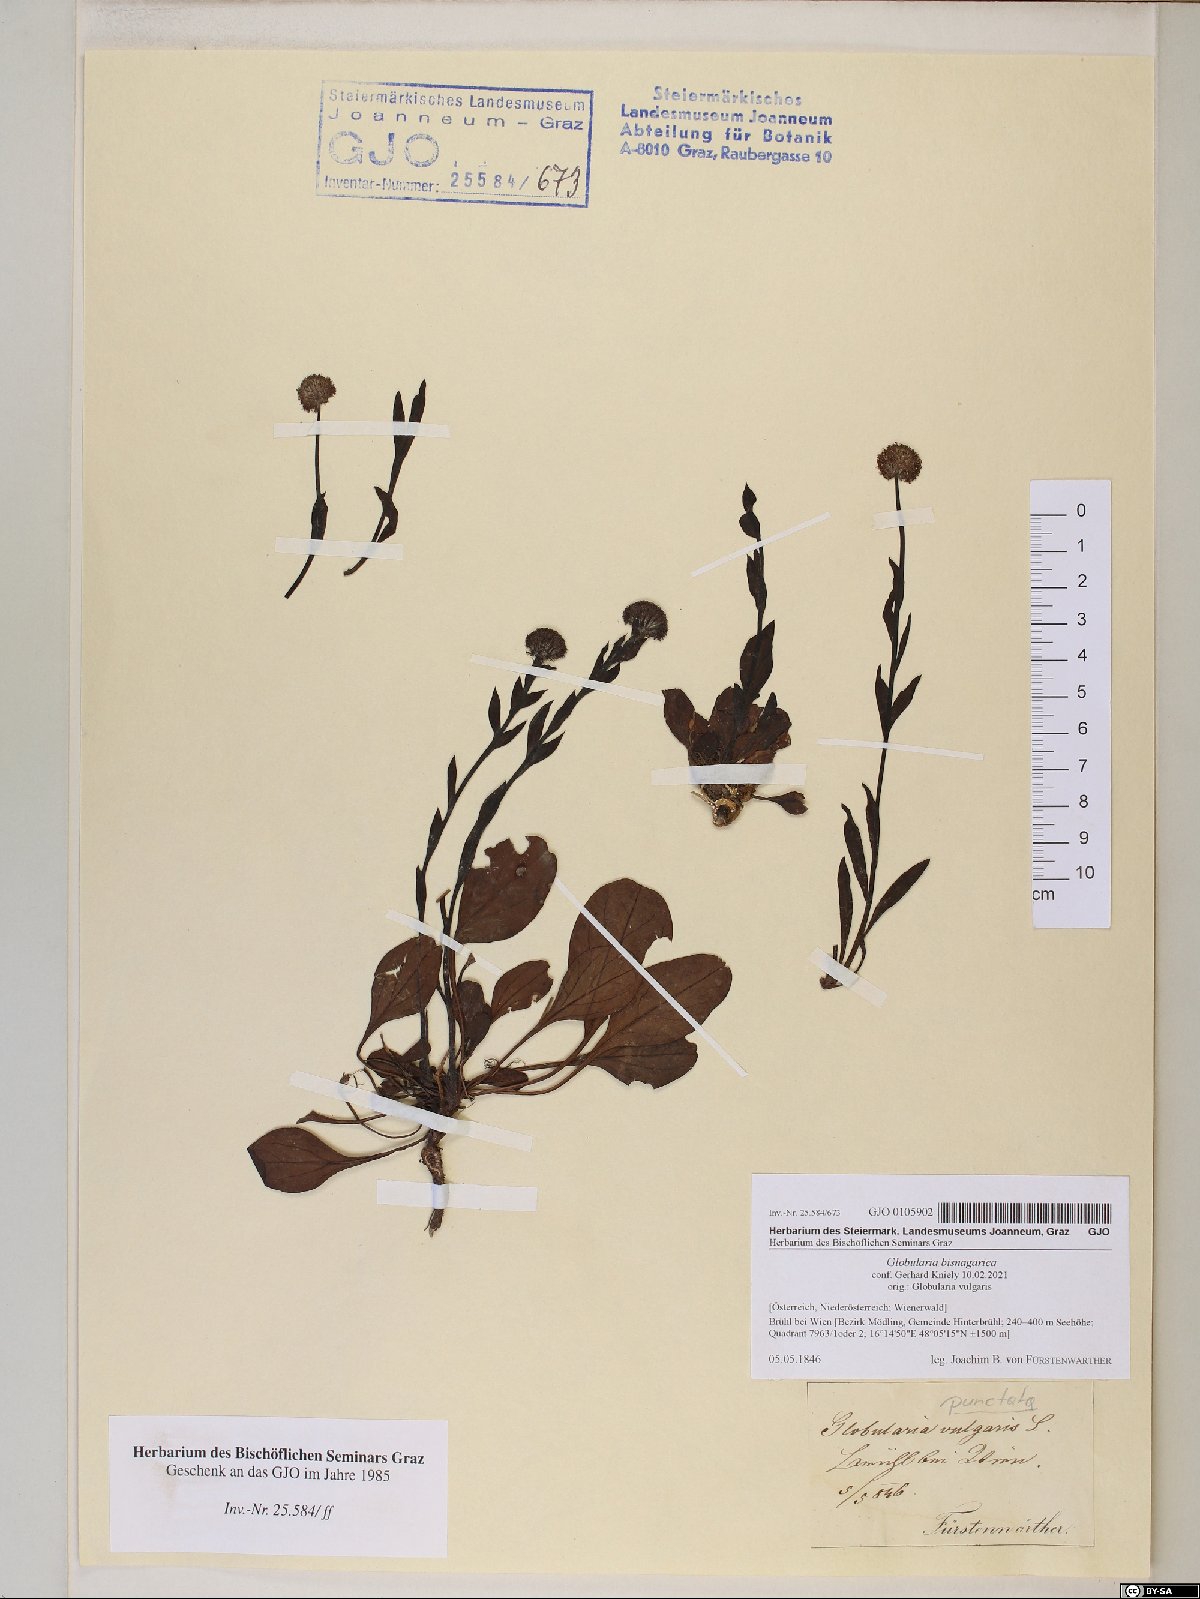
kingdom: Plantae
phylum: Tracheophyta
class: Magnoliopsida
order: Lamiales
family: Plantaginaceae
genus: Globularia
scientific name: Globularia bisnagarica
